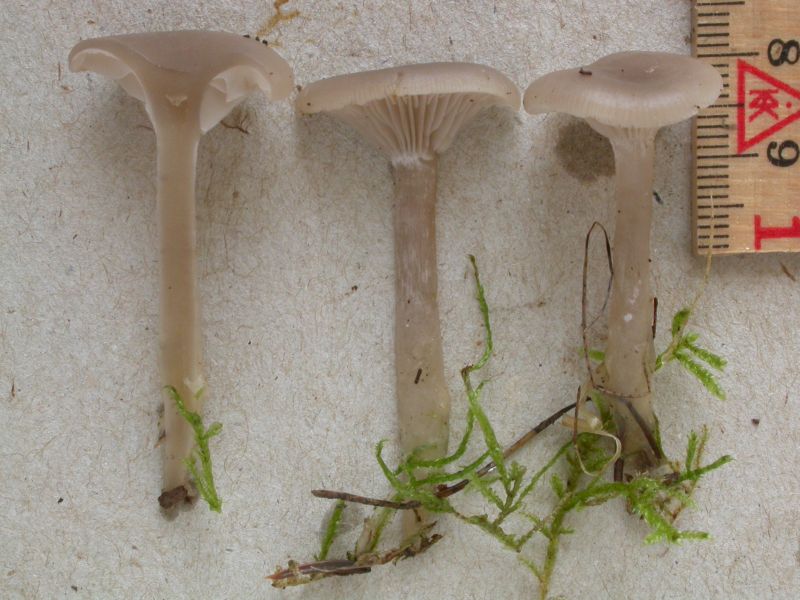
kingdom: Fungi
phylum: Basidiomycota
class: Agaricomycetes
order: Agaricales
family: Tricholomataceae
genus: Clitocybe
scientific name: Clitocybe vibecina
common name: randstribet tragthat
